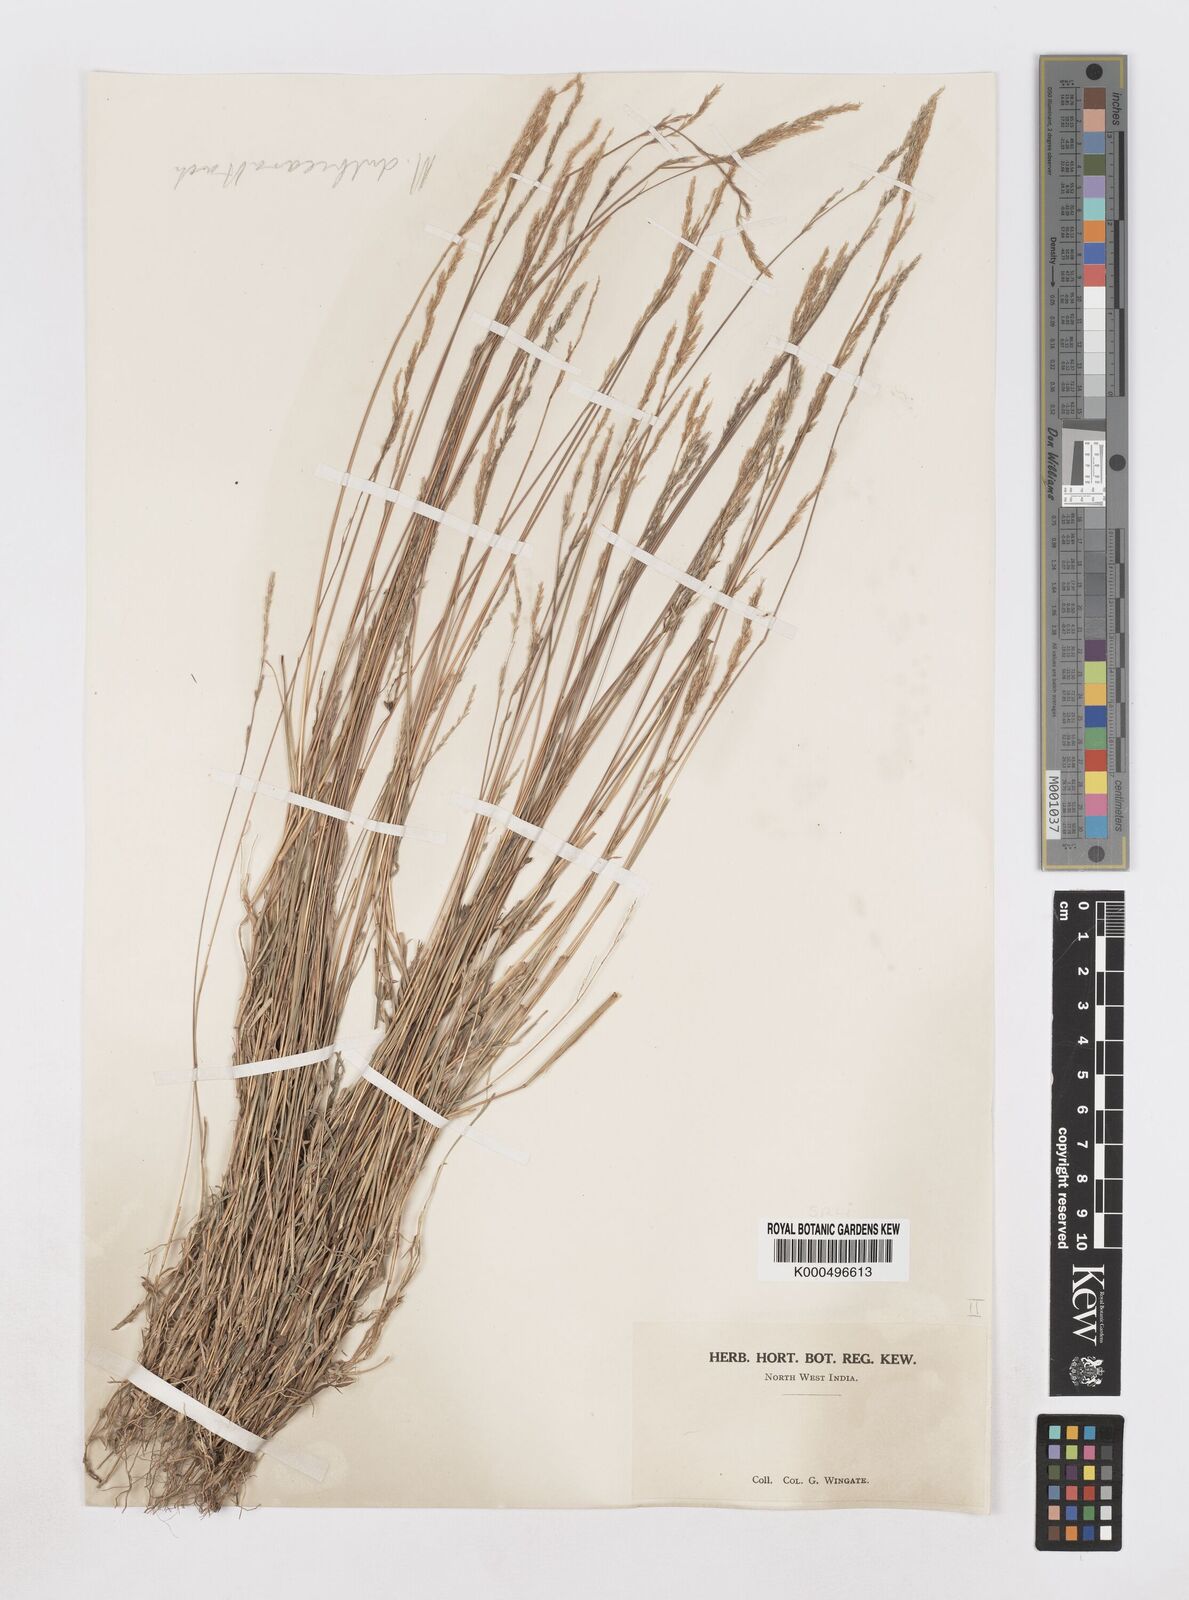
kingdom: Plantae
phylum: Tracheophyta
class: Liliopsida
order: Poales
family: Poaceae
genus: Muhlenbergia
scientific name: Muhlenbergia duthieana
